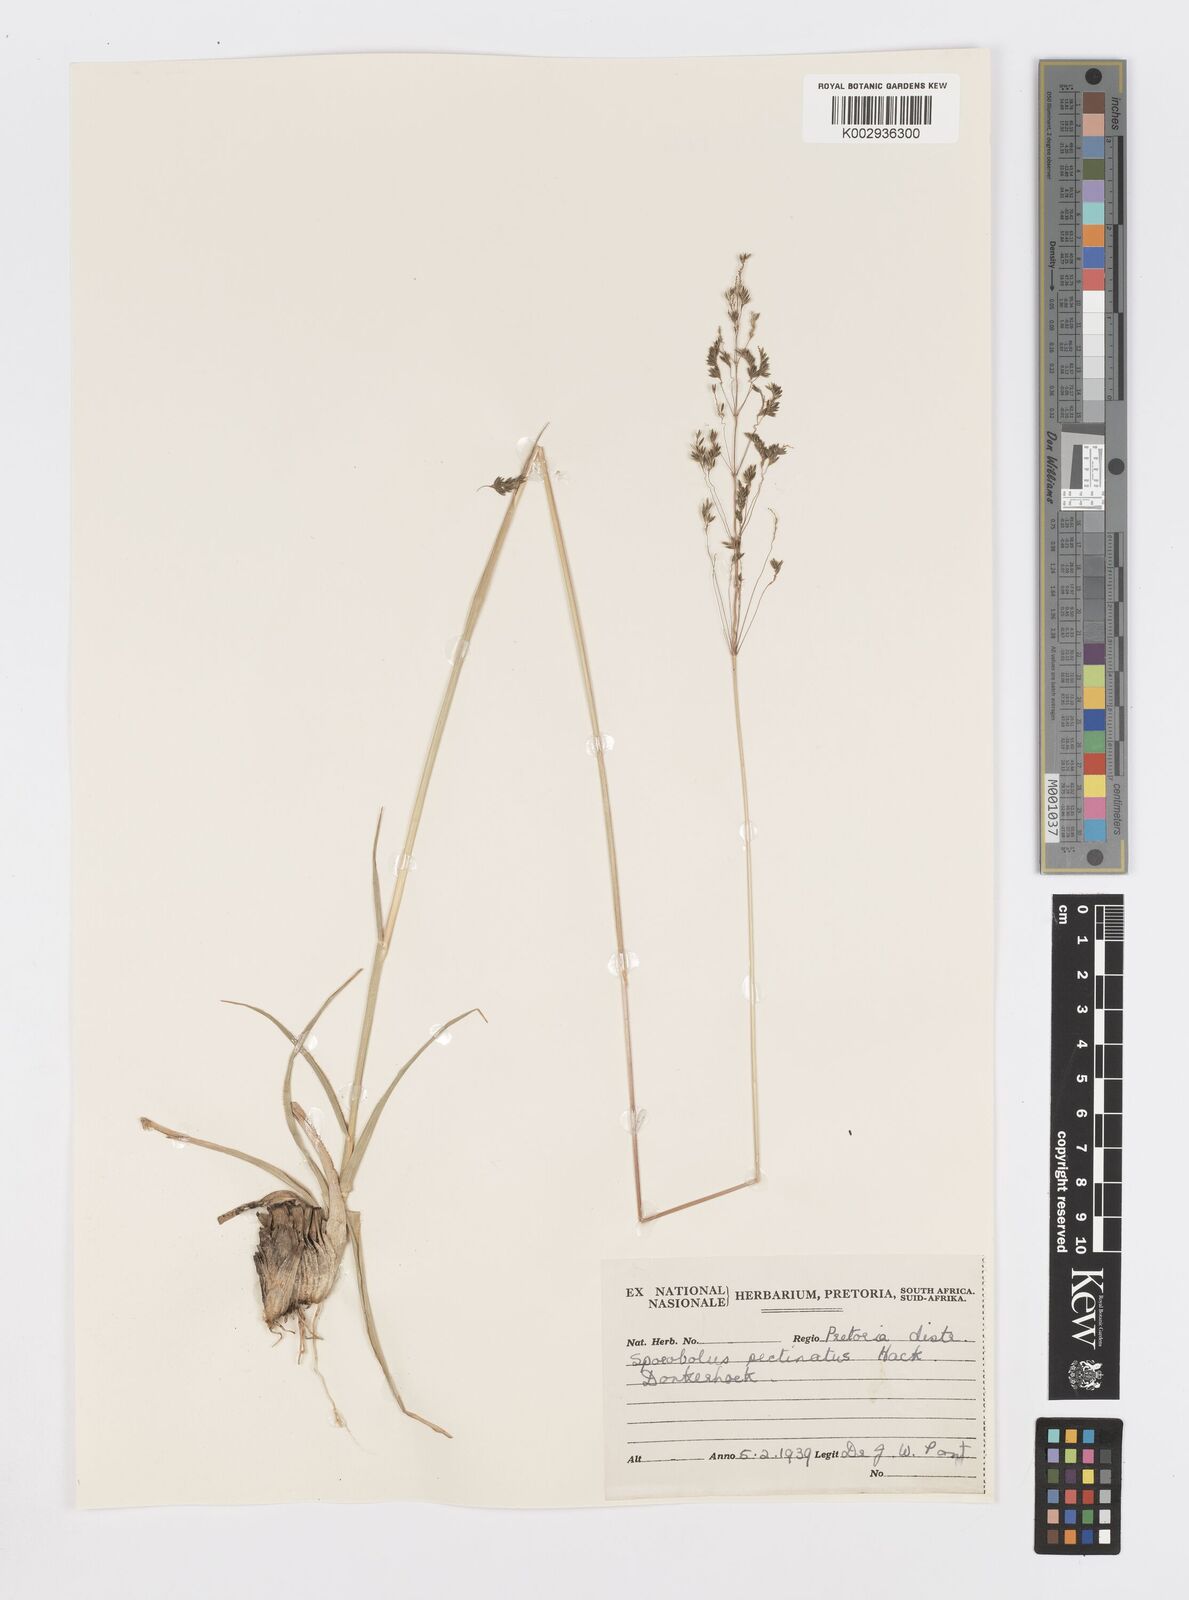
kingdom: Plantae
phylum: Tracheophyta
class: Liliopsida
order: Poales
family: Poaceae
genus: Sporobolus
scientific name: Sporobolus pectinatus
